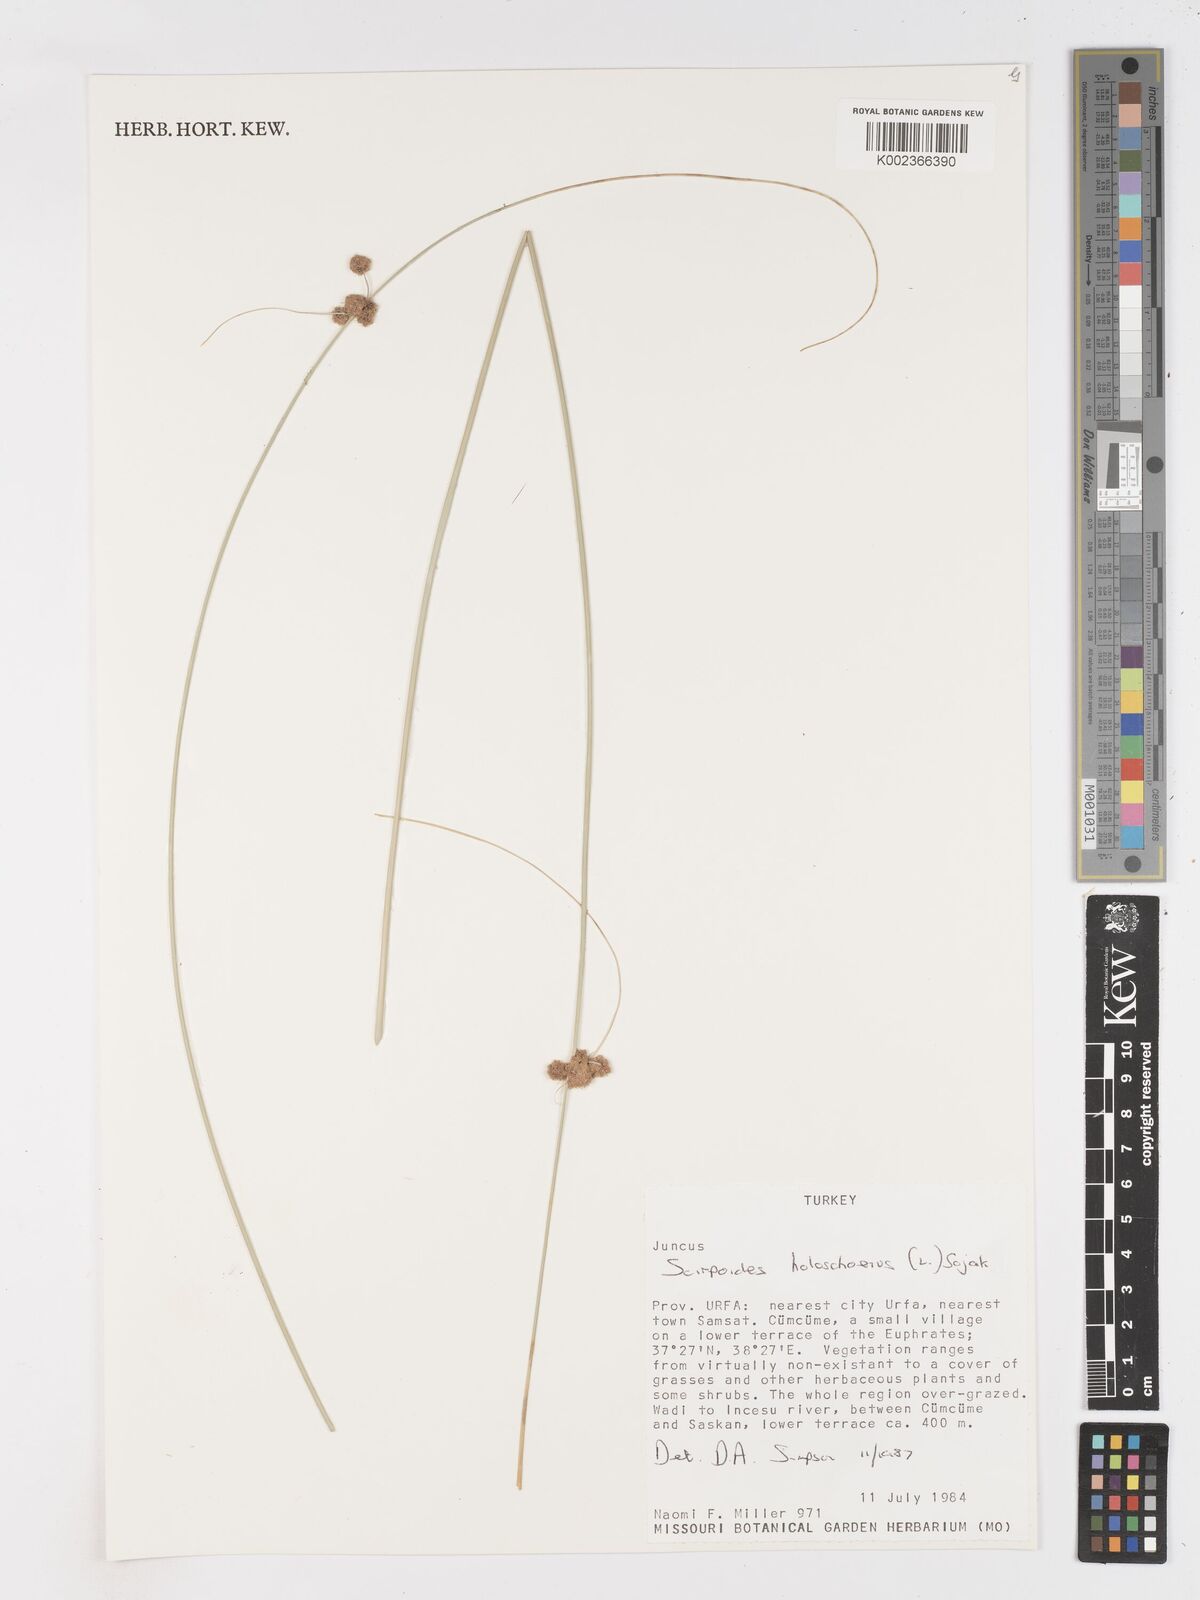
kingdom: Plantae
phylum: Tracheophyta
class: Liliopsida
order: Poales
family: Cyperaceae
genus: Scirpoides
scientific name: Scirpoides holoschoenus
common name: Round-headed club-rush
